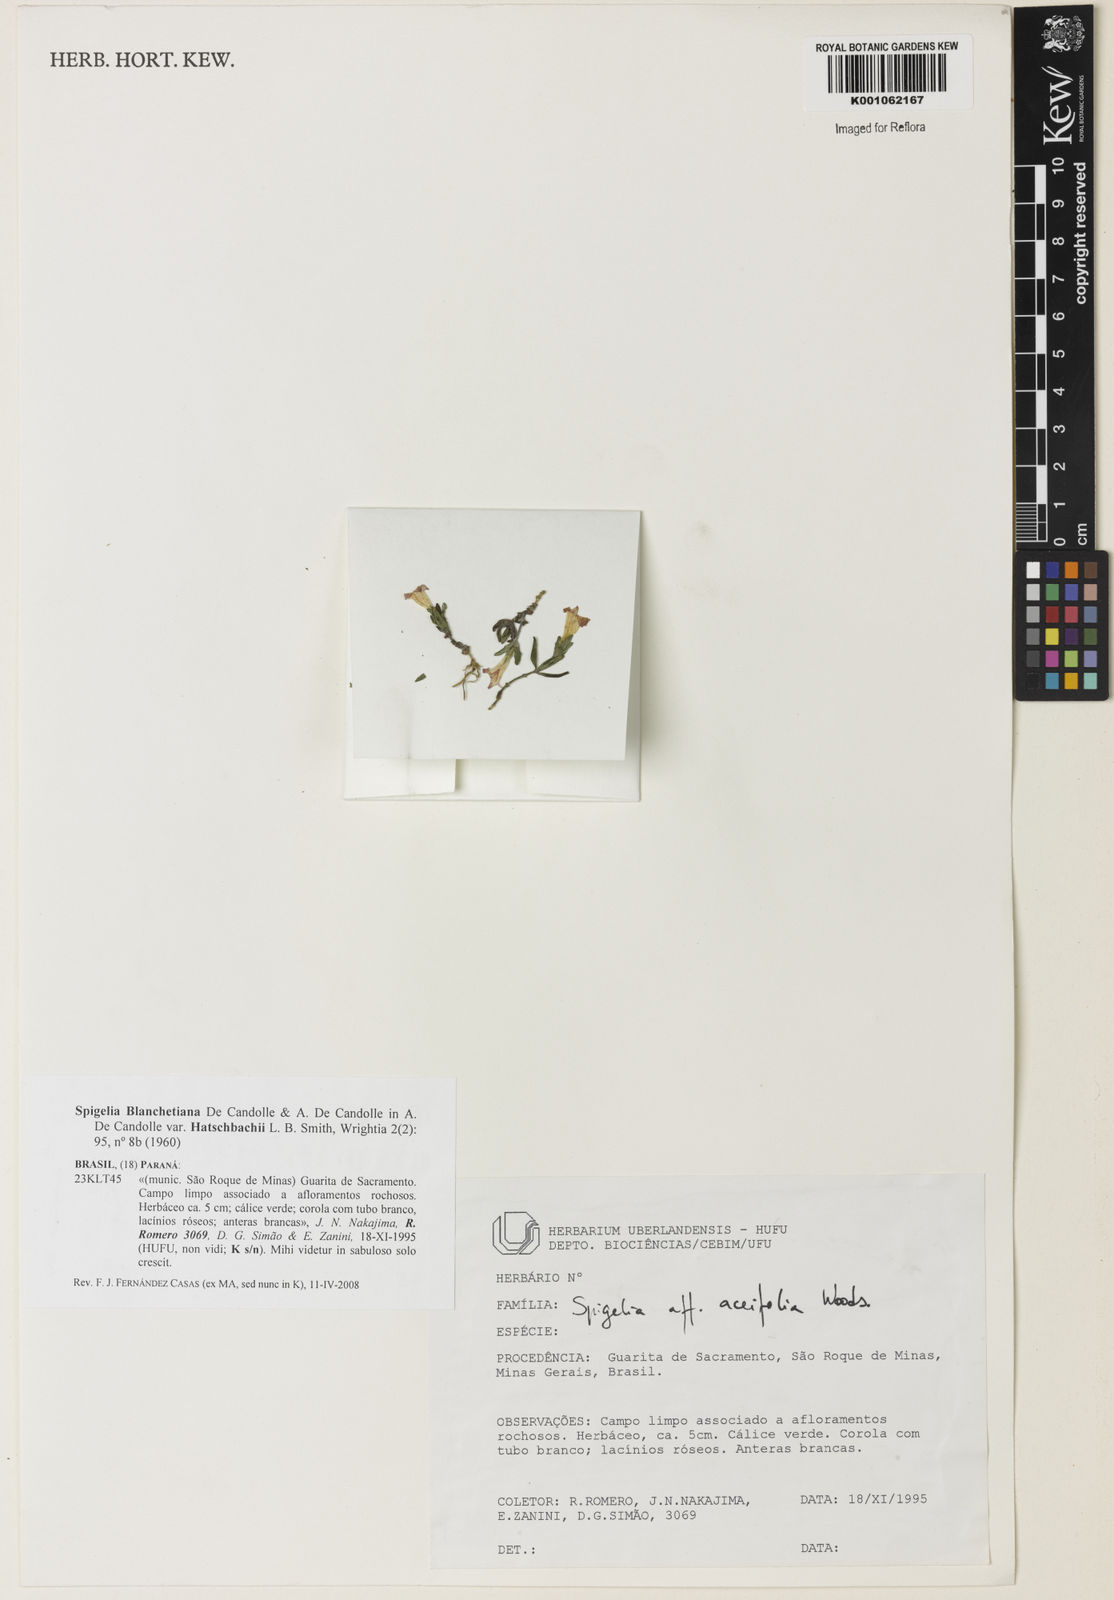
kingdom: Plantae
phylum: Tracheophyta
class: Magnoliopsida
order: Gentianales
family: Loganiaceae
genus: Spigelia
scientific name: Spigelia blanchetiana
